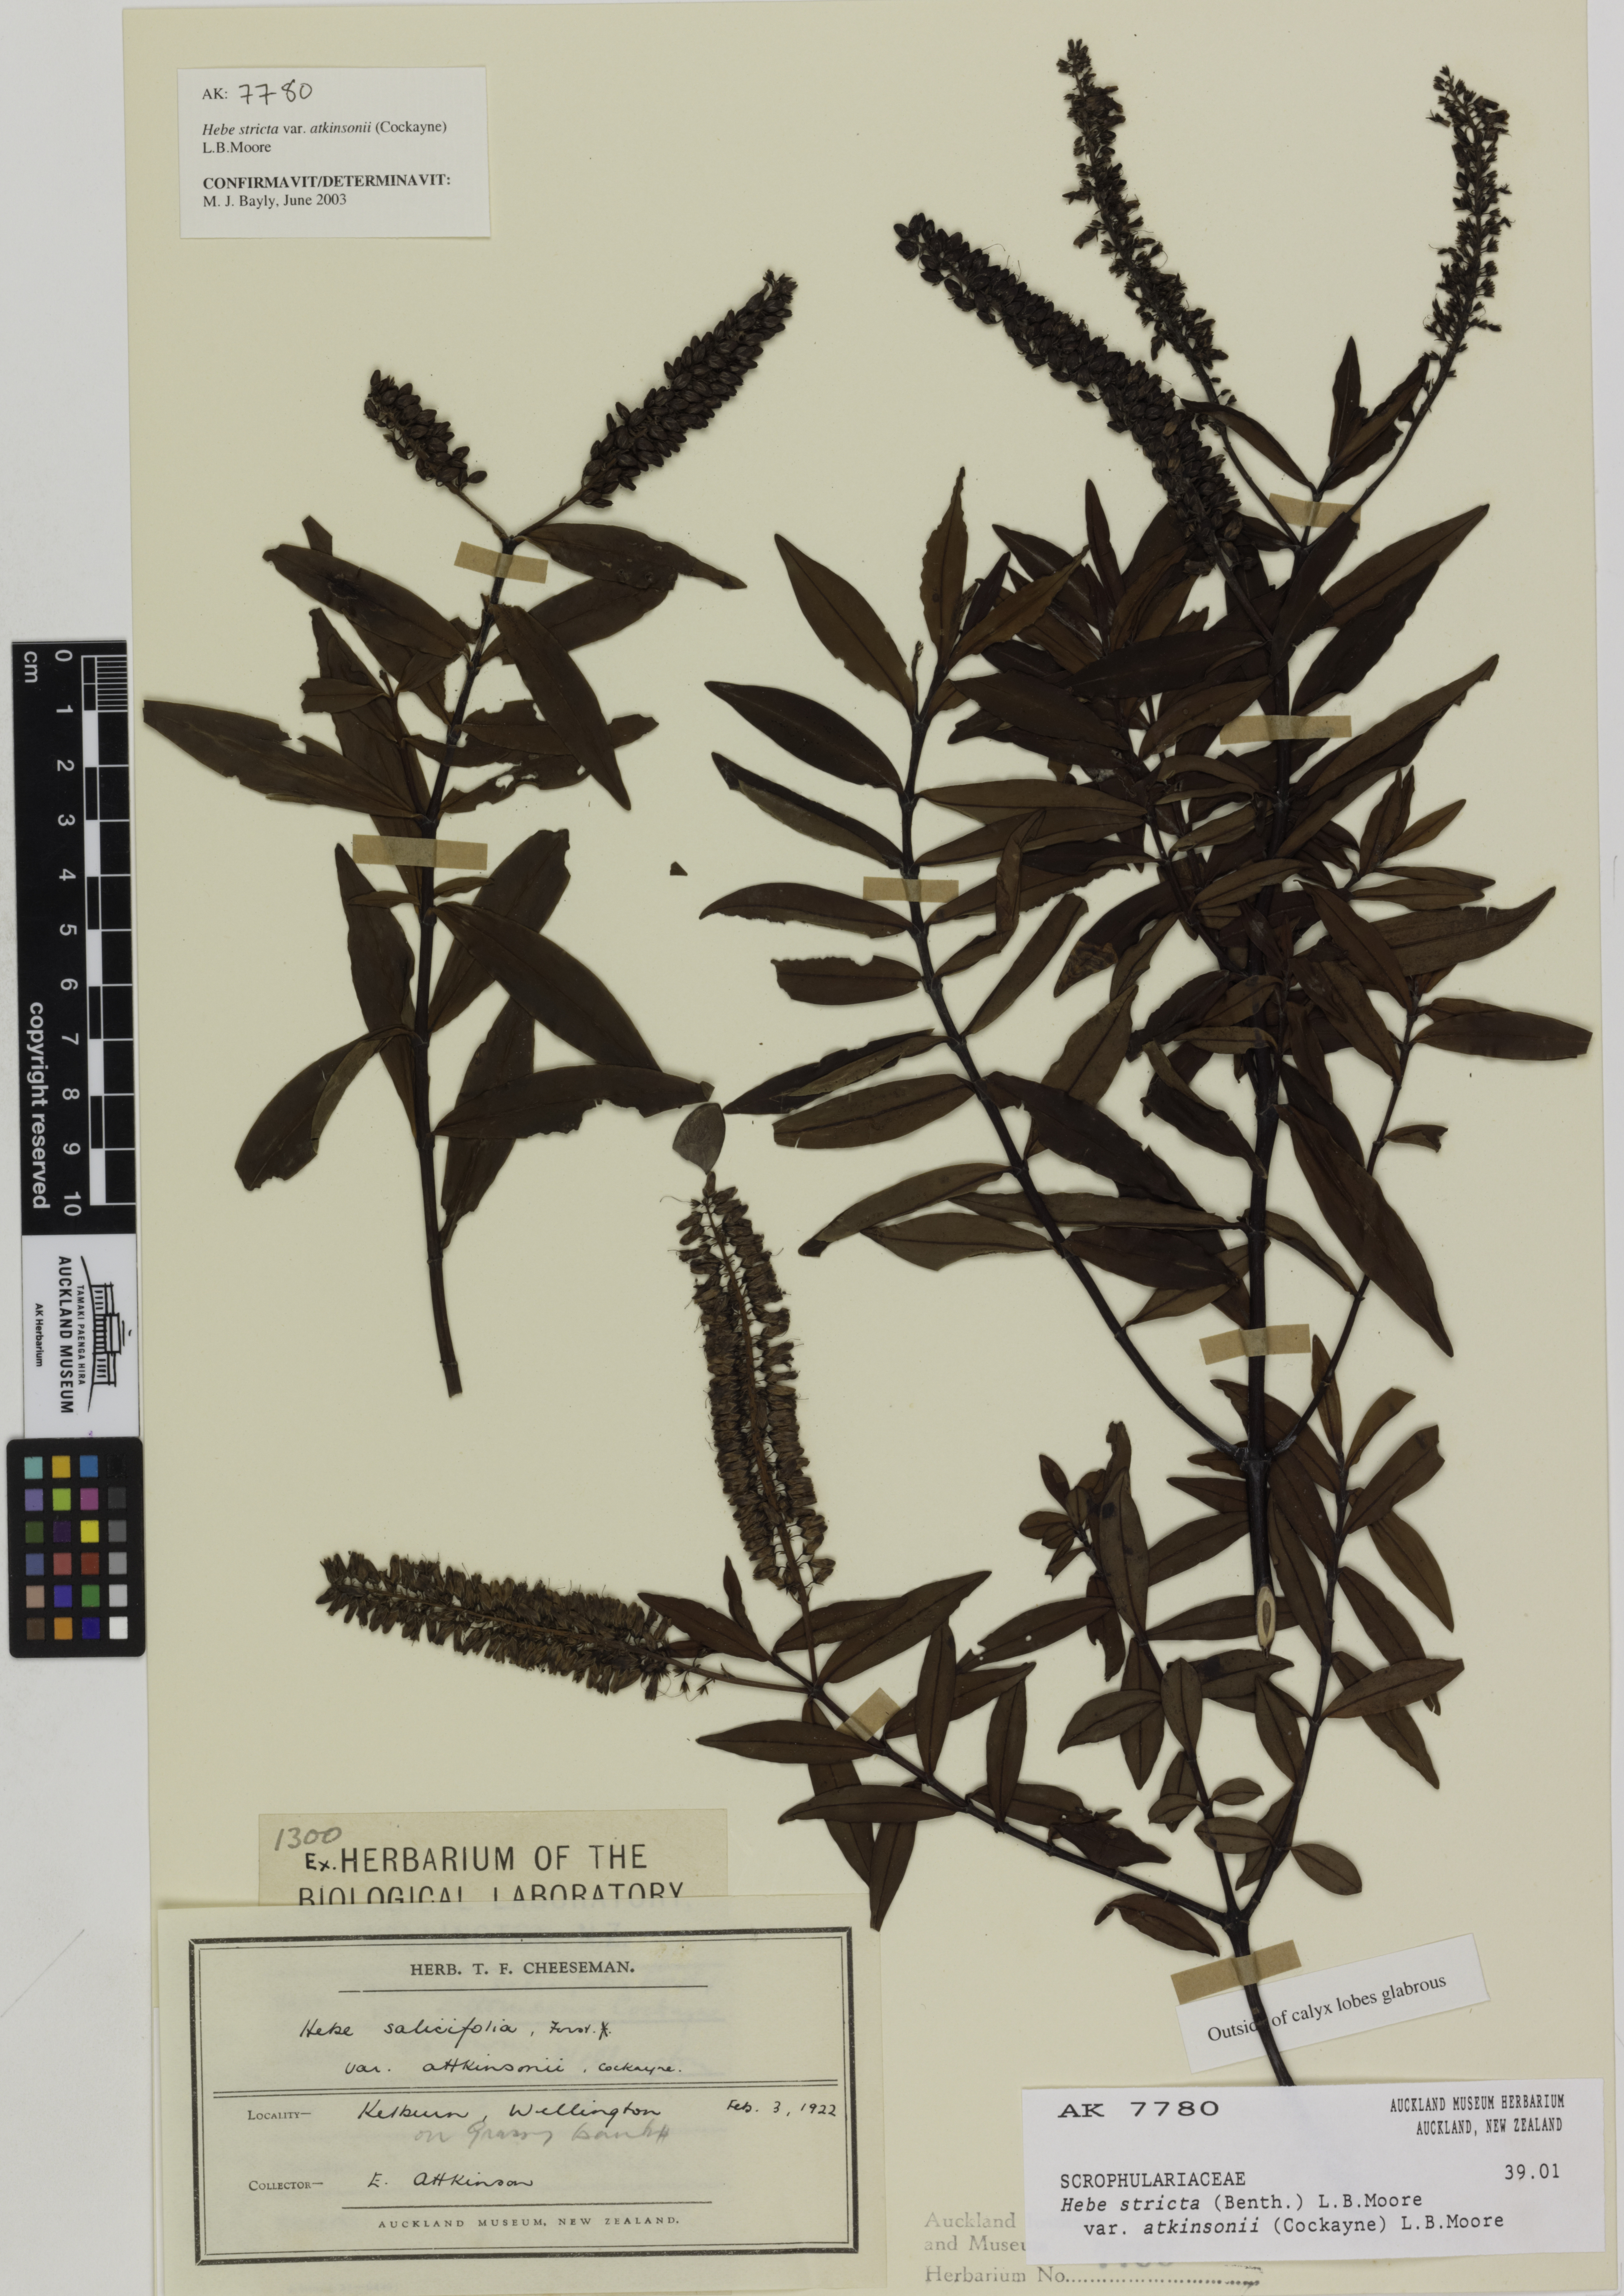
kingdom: Plantae
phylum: Tracheophyta
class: Magnoliopsida
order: Lamiales
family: Plantaginaceae
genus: Veronica
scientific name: Veronica stricta
